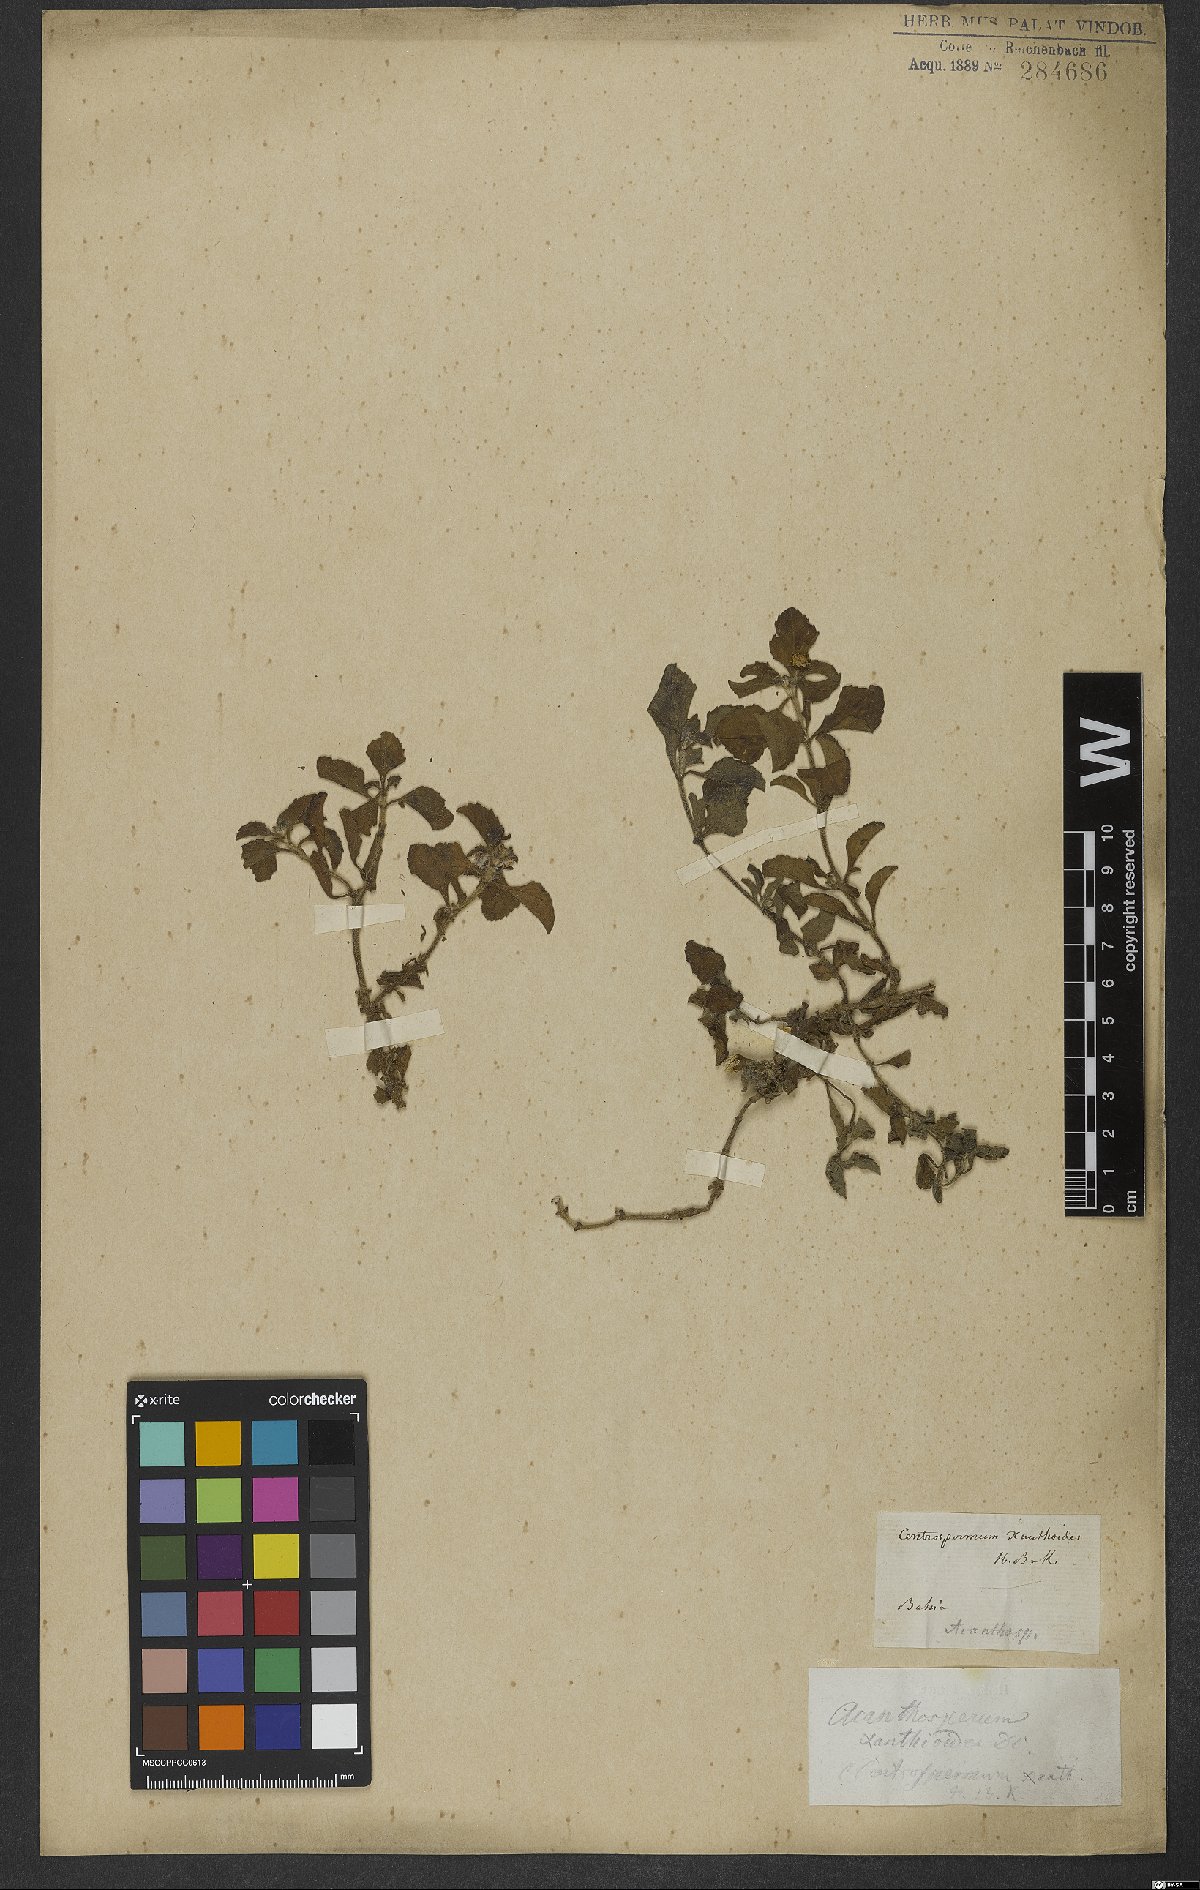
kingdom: Plantae
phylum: Tracheophyta
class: Magnoliopsida
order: Asterales
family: Asteraceae
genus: Acanthospermum
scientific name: Acanthospermum australe
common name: Paraguayan starbur
